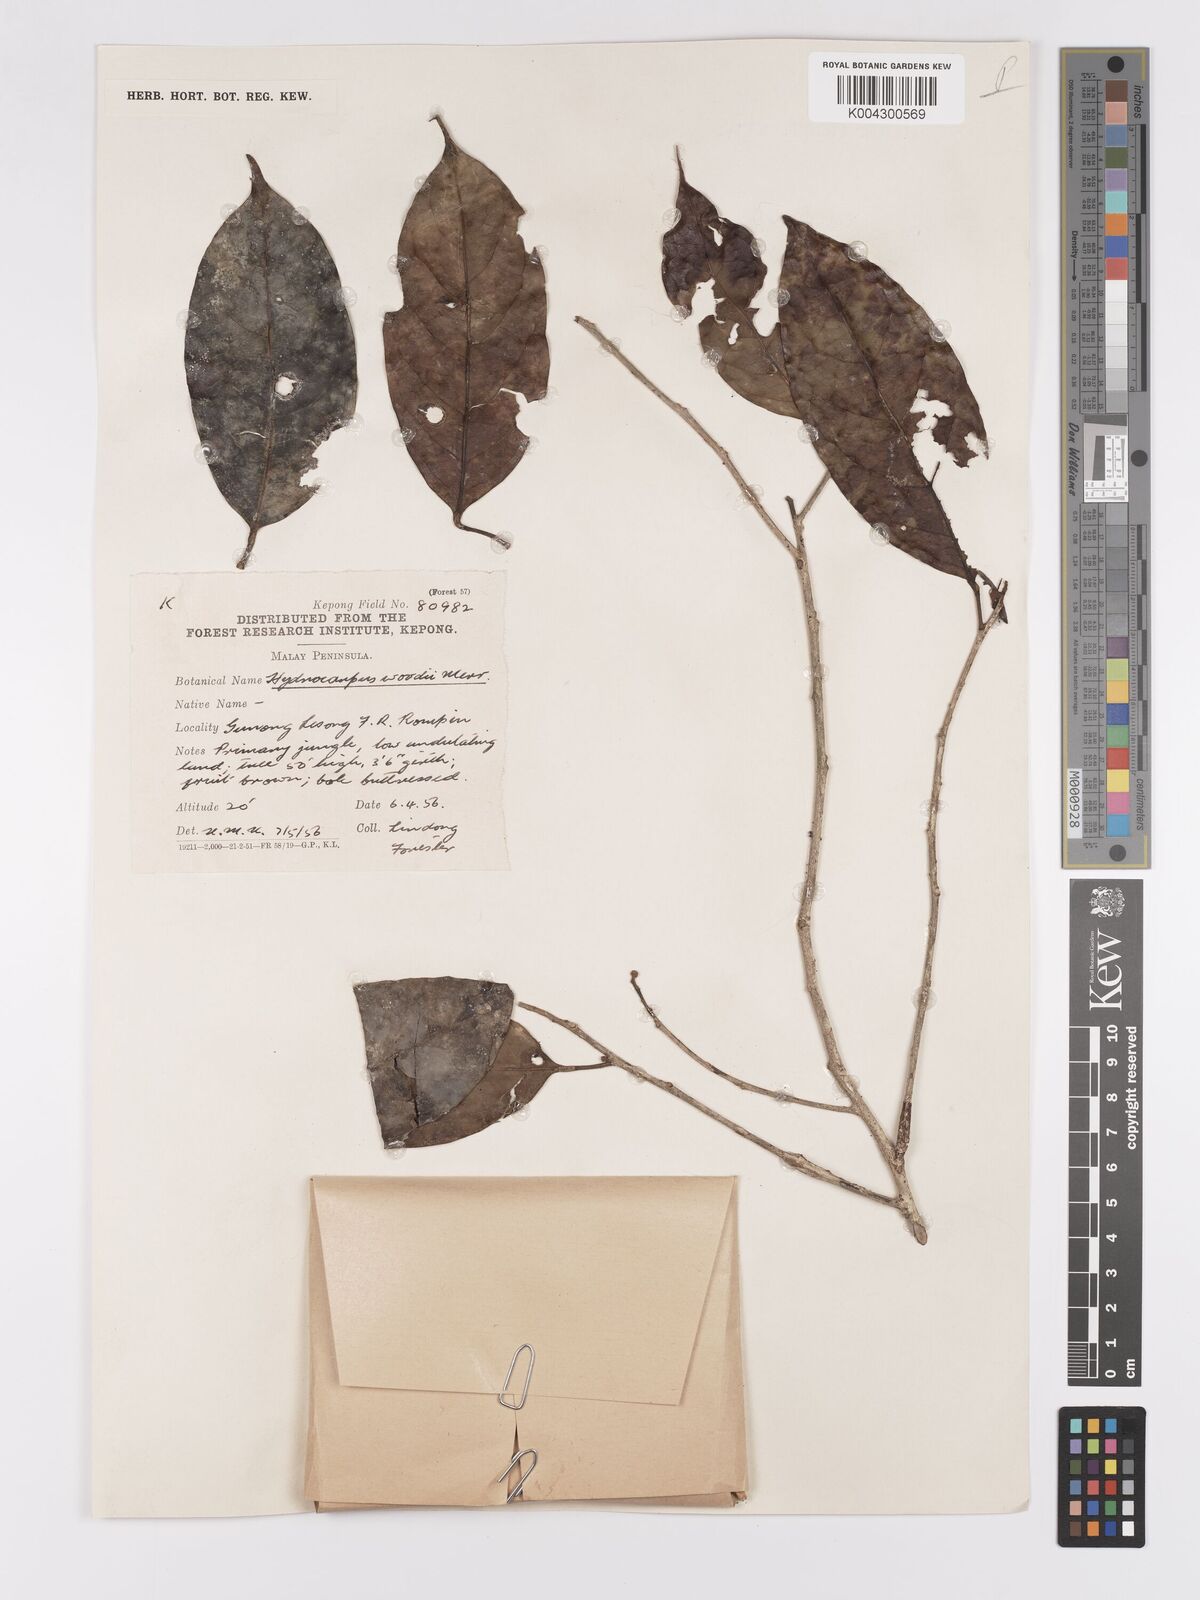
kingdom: Plantae
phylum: Tracheophyta
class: Magnoliopsida
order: Malpighiales
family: Achariaceae
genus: Hydnocarpus
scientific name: Hydnocarpus woodii
